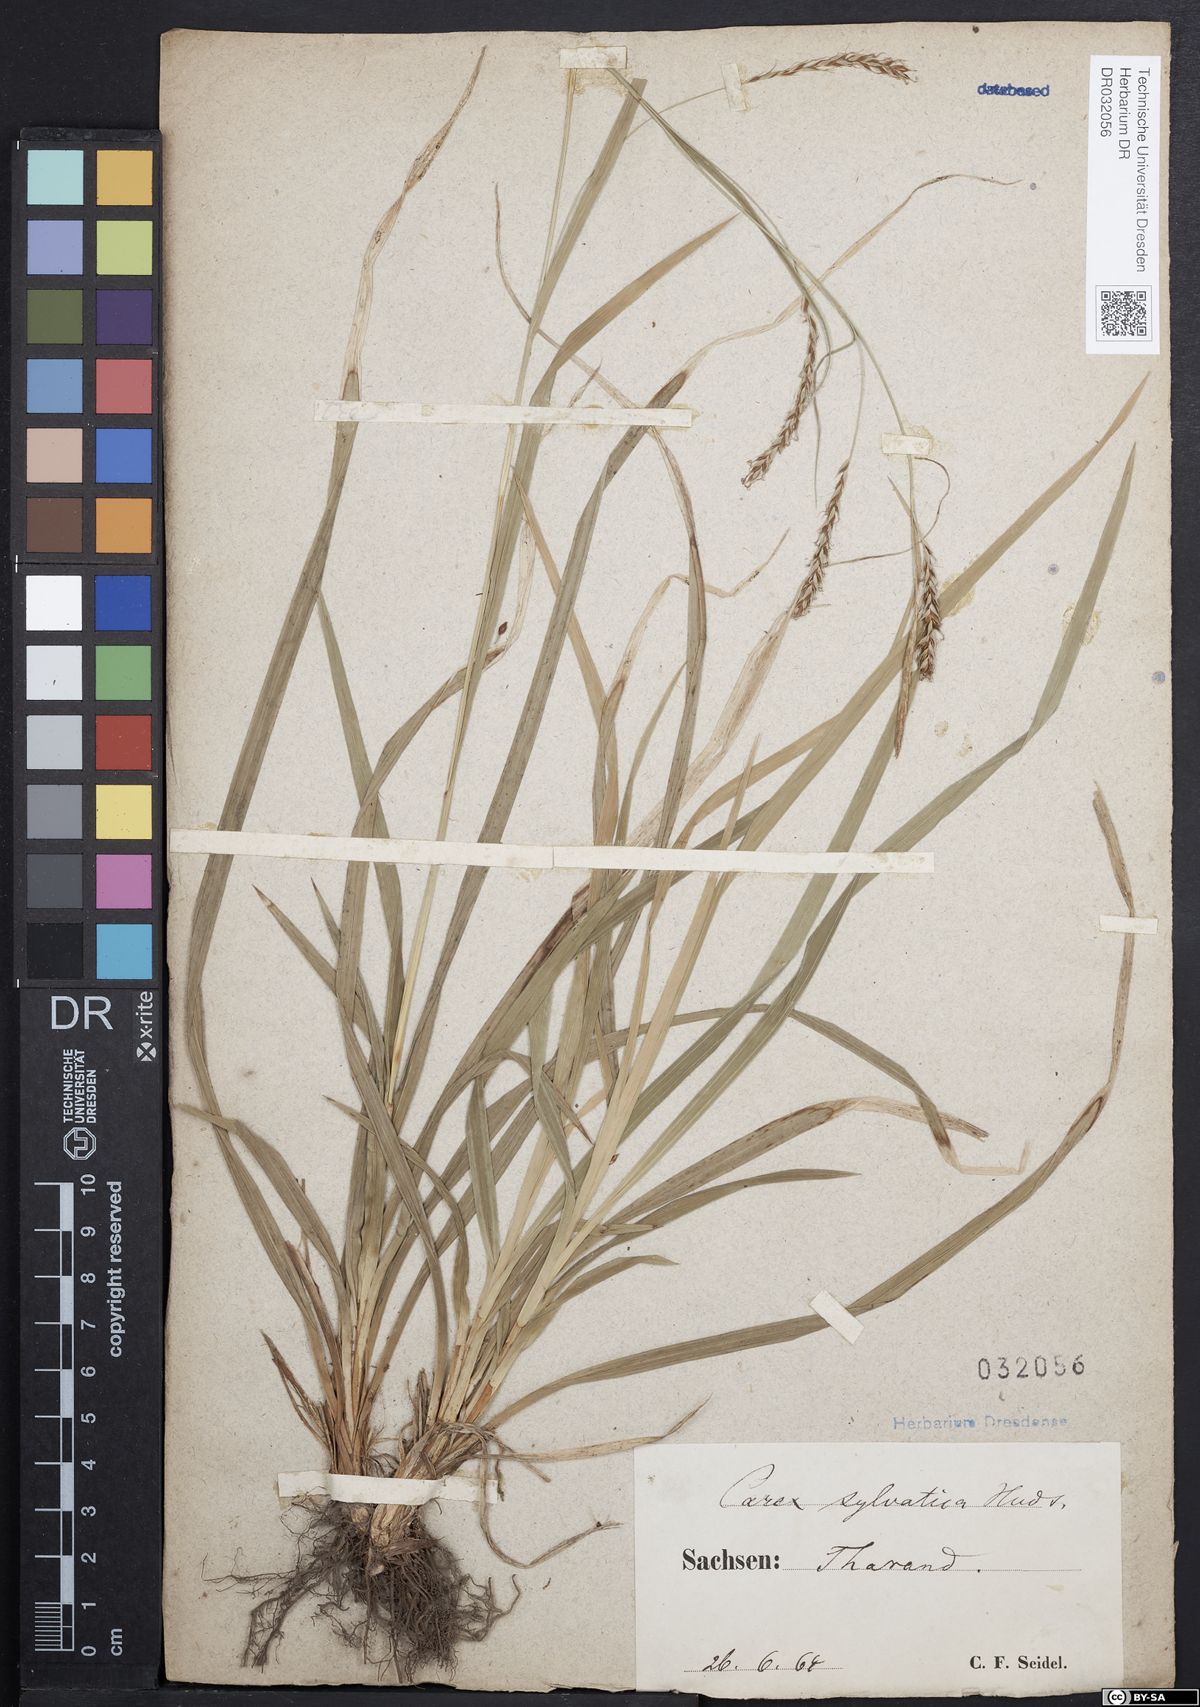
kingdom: Plantae
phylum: Tracheophyta
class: Liliopsida
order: Poales
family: Cyperaceae
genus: Carex
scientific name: Carex sylvatica
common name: Wood-sedge
